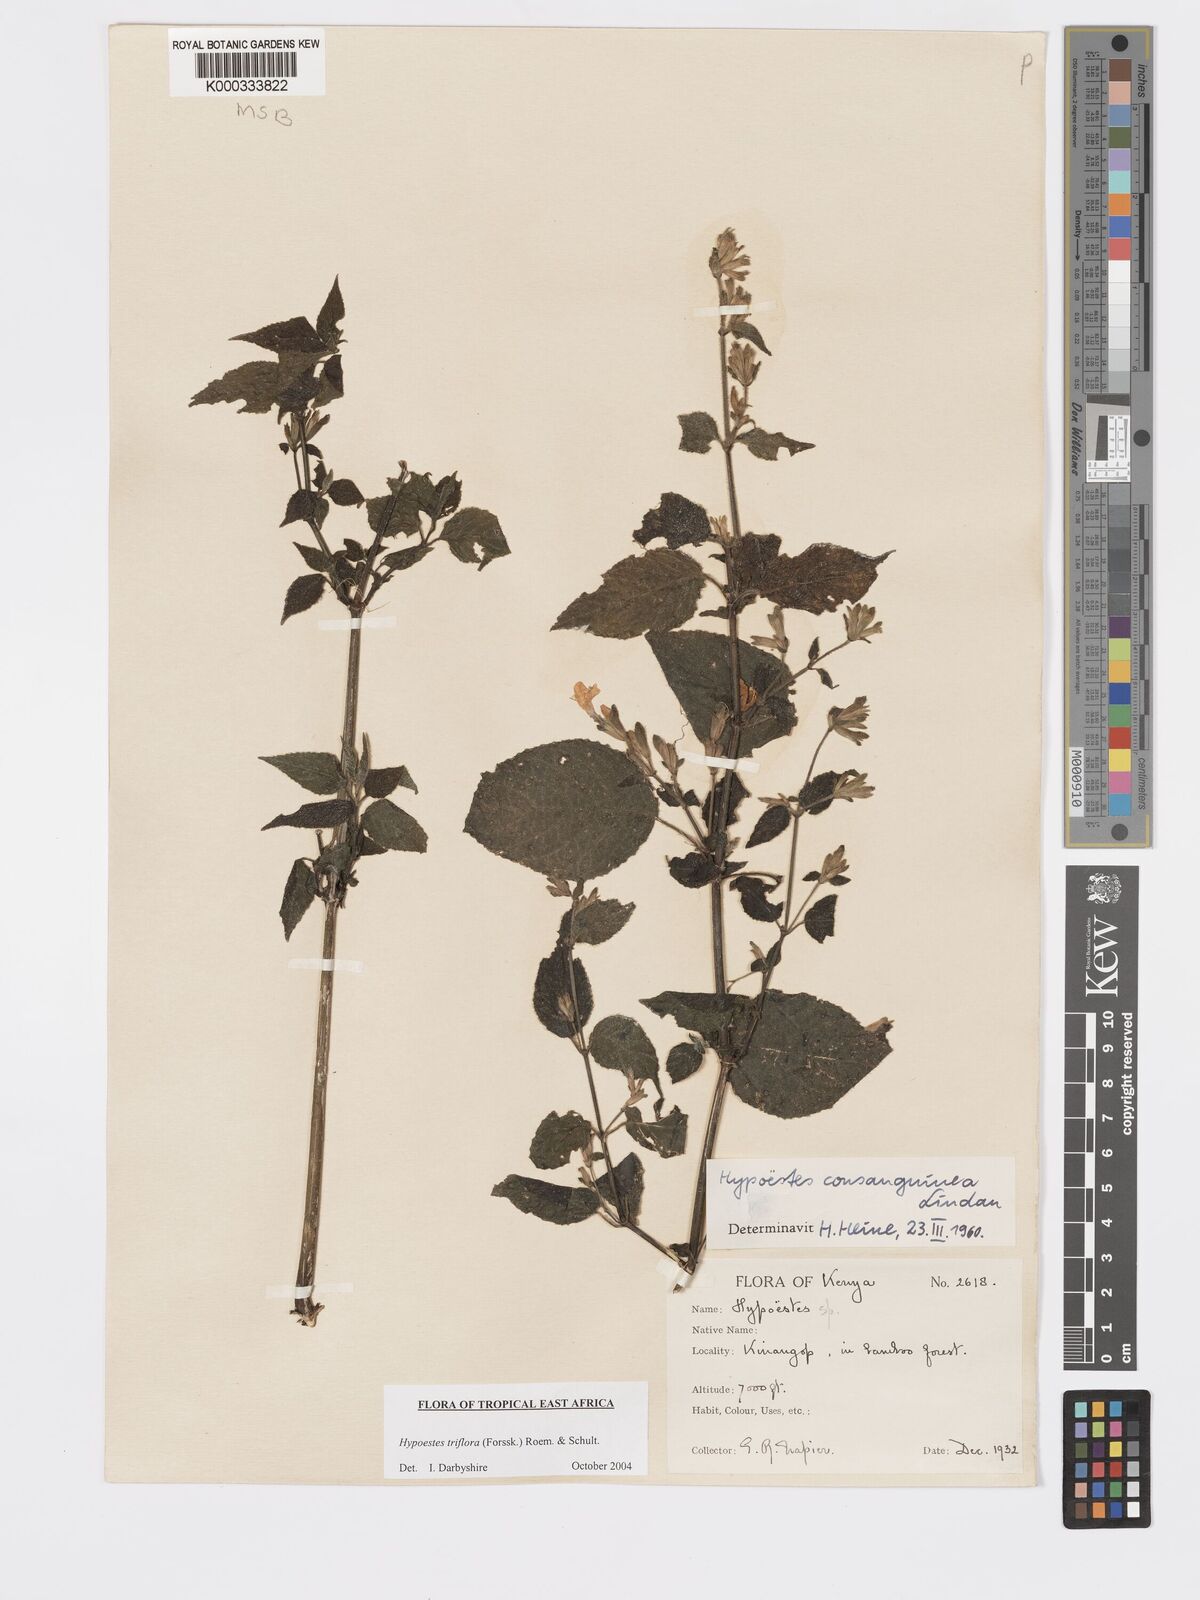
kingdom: Plantae
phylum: Tracheophyta
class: Magnoliopsida
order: Lamiales
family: Acanthaceae
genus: Hypoestes
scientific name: Hypoestes triflora
